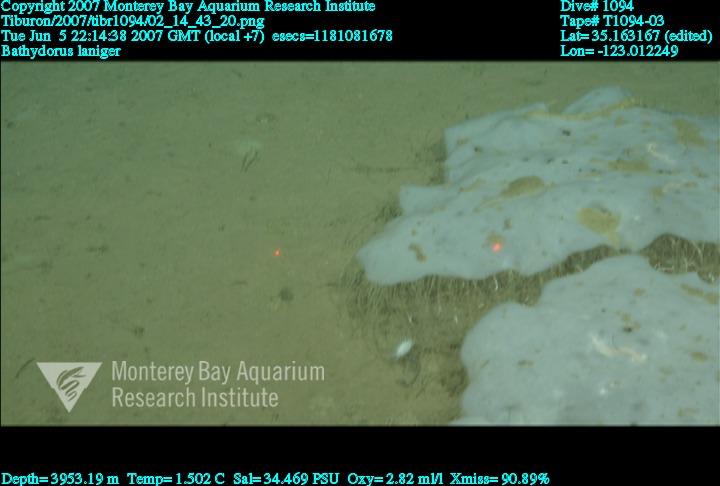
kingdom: Animalia
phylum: Porifera
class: Hexactinellida
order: Lyssacinosida
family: Rossellidae
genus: Bathydorus
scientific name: Bathydorus laniger
